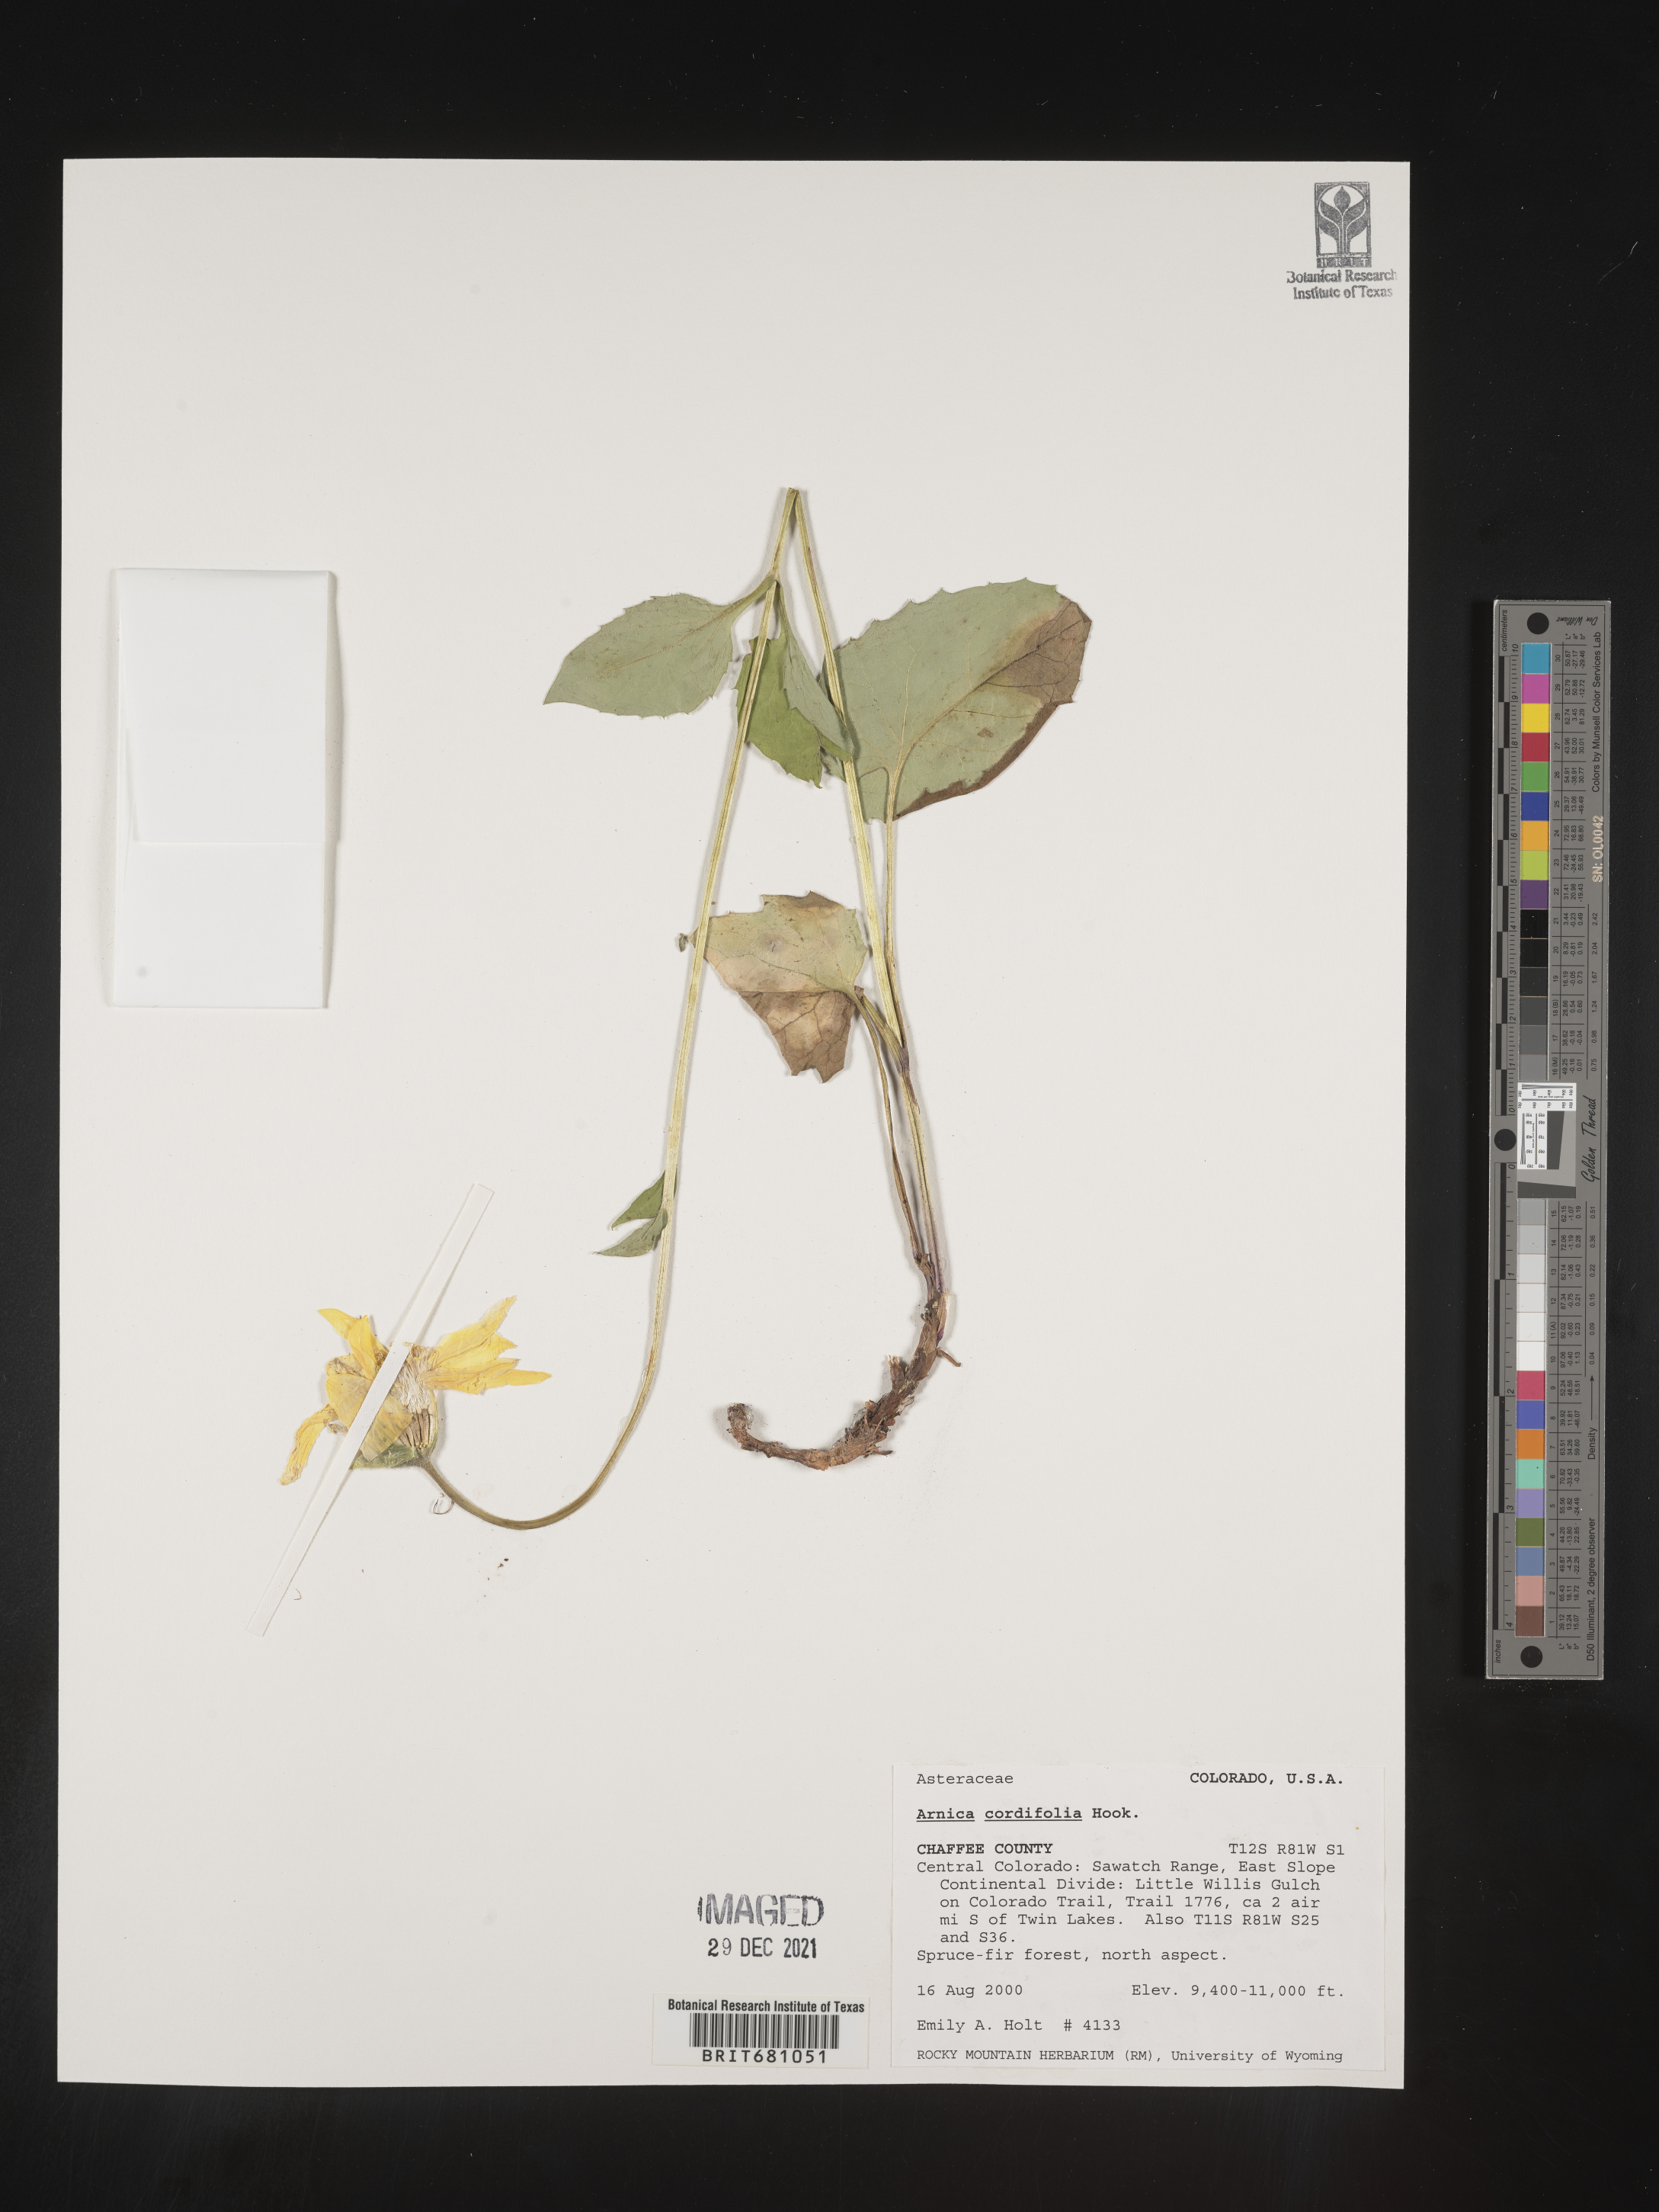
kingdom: Plantae
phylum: Tracheophyta
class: Magnoliopsida
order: Asterales
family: Asteraceae
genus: Arnica
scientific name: Arnica cordifolia
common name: Heart-leaf arnica
